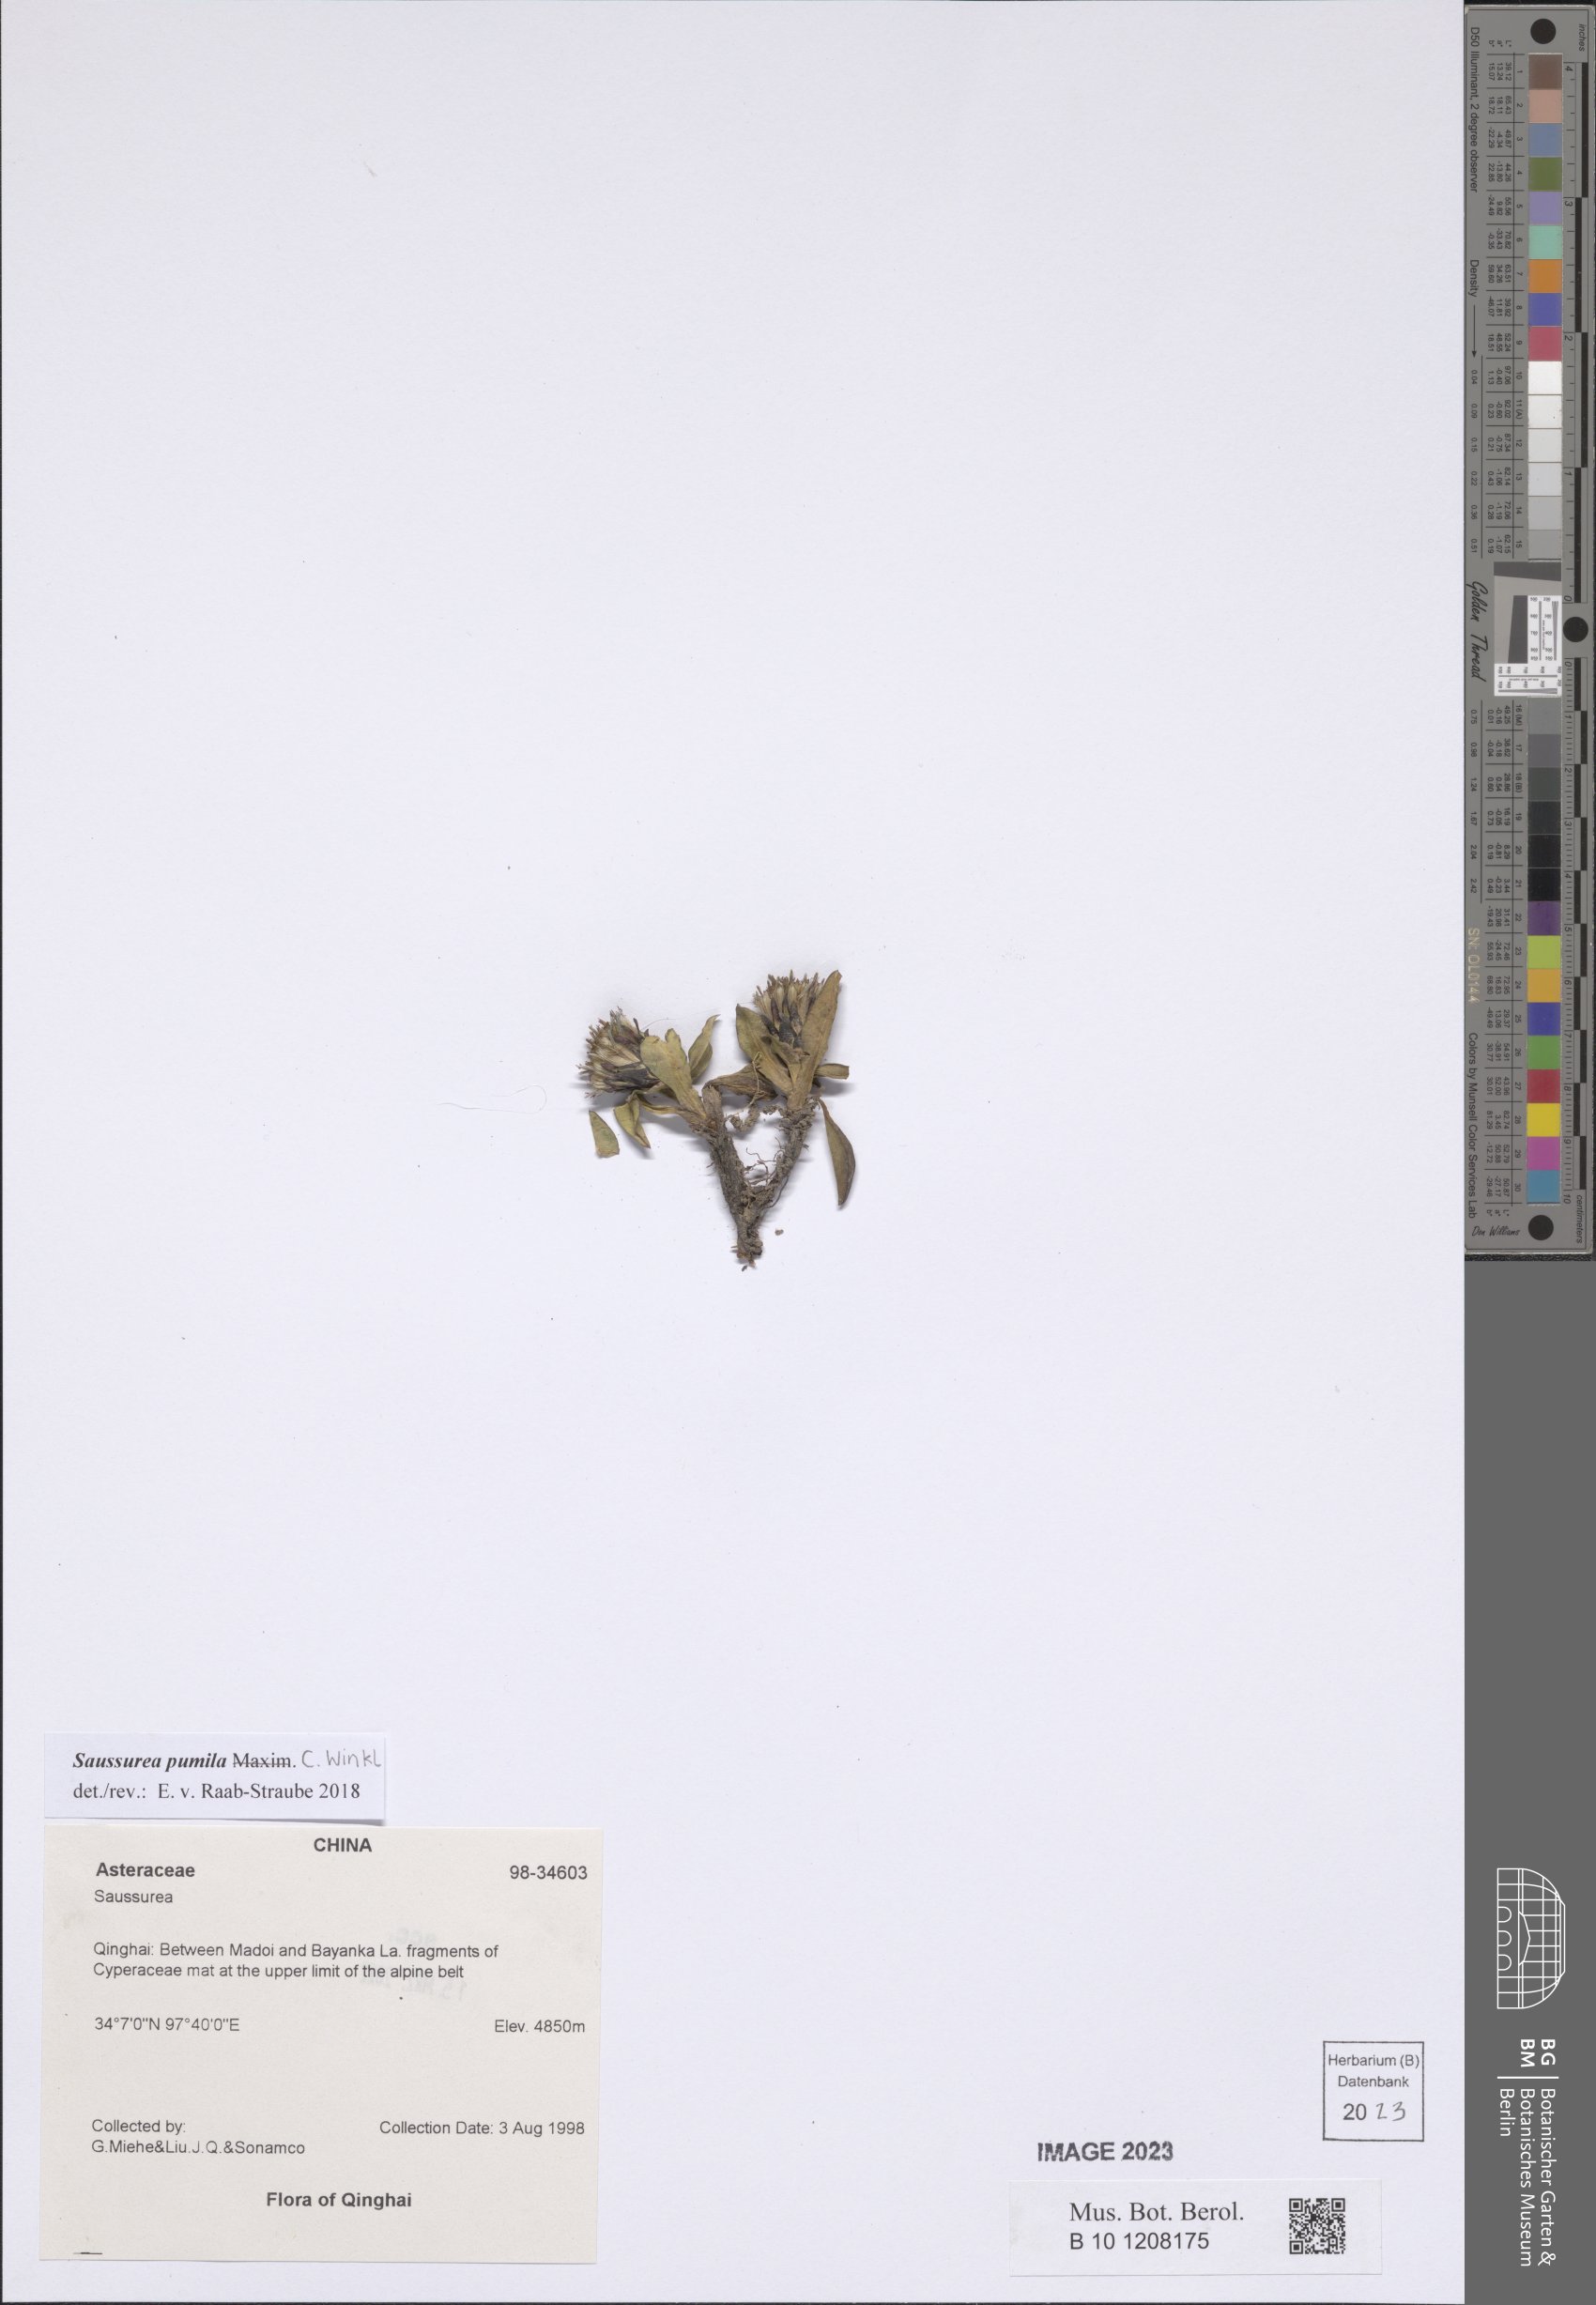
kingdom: Plantae
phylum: Tracheophyta
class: Magnoliopsida
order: Asterales
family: Asteraceae
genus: Saussurea
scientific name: Saussurea pumila
